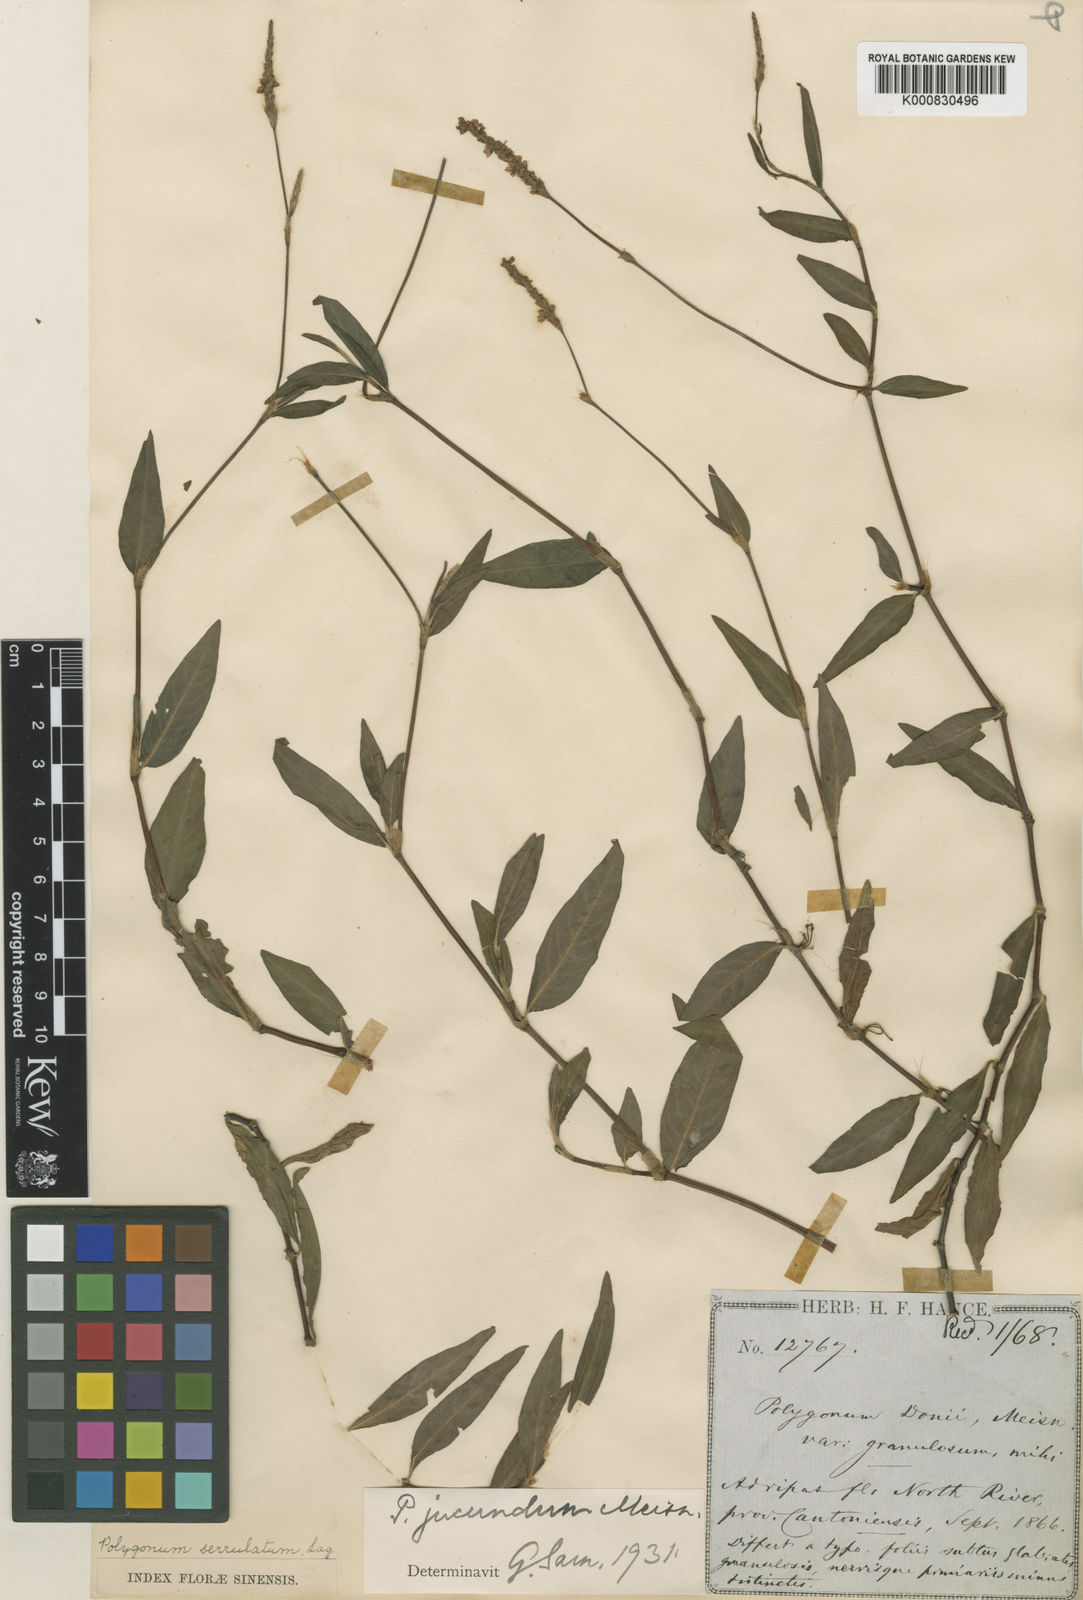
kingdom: Plantae
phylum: Tracheophyta
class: Magnoliopsida
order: Caryophyllales
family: Polygonaceae
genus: Persicaria
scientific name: Persicaria jucunda
